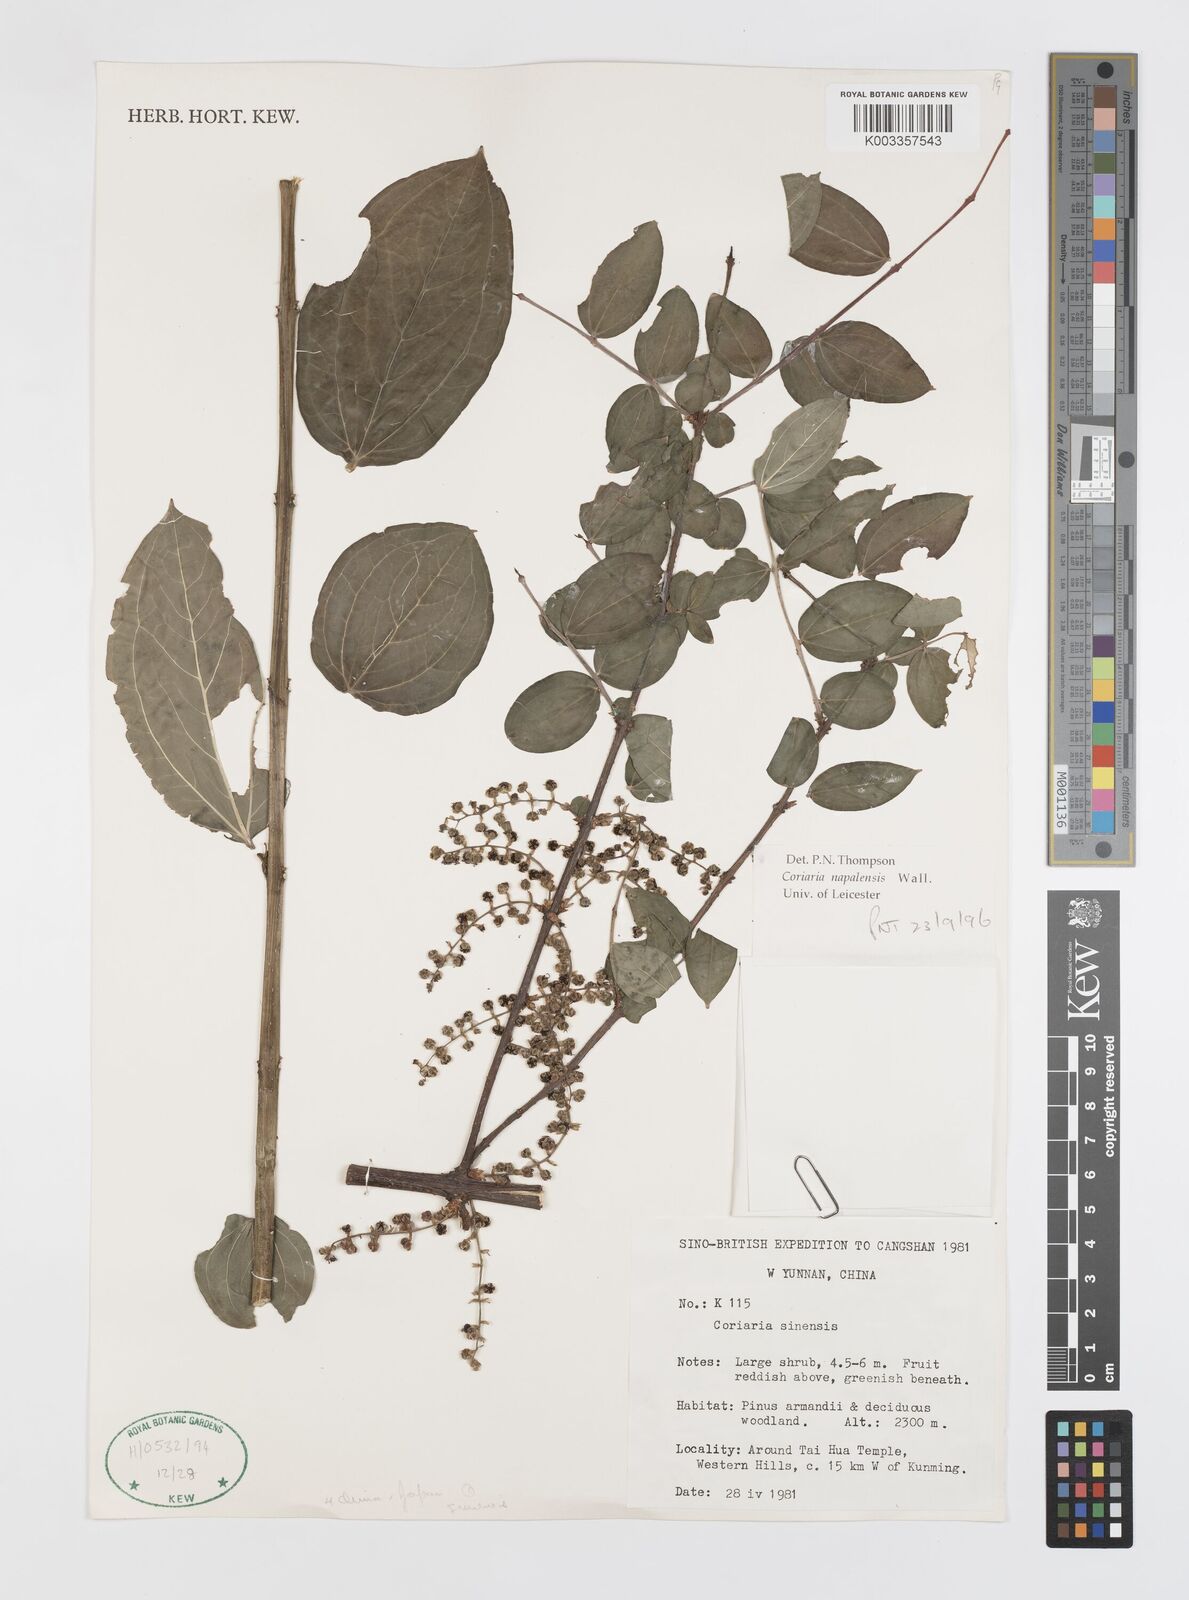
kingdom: Plantae
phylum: Tracheophyta
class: Magnoliopsida
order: Cucurbitales
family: Coriariaceae
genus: Coriaria
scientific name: Coriaria napalensis
